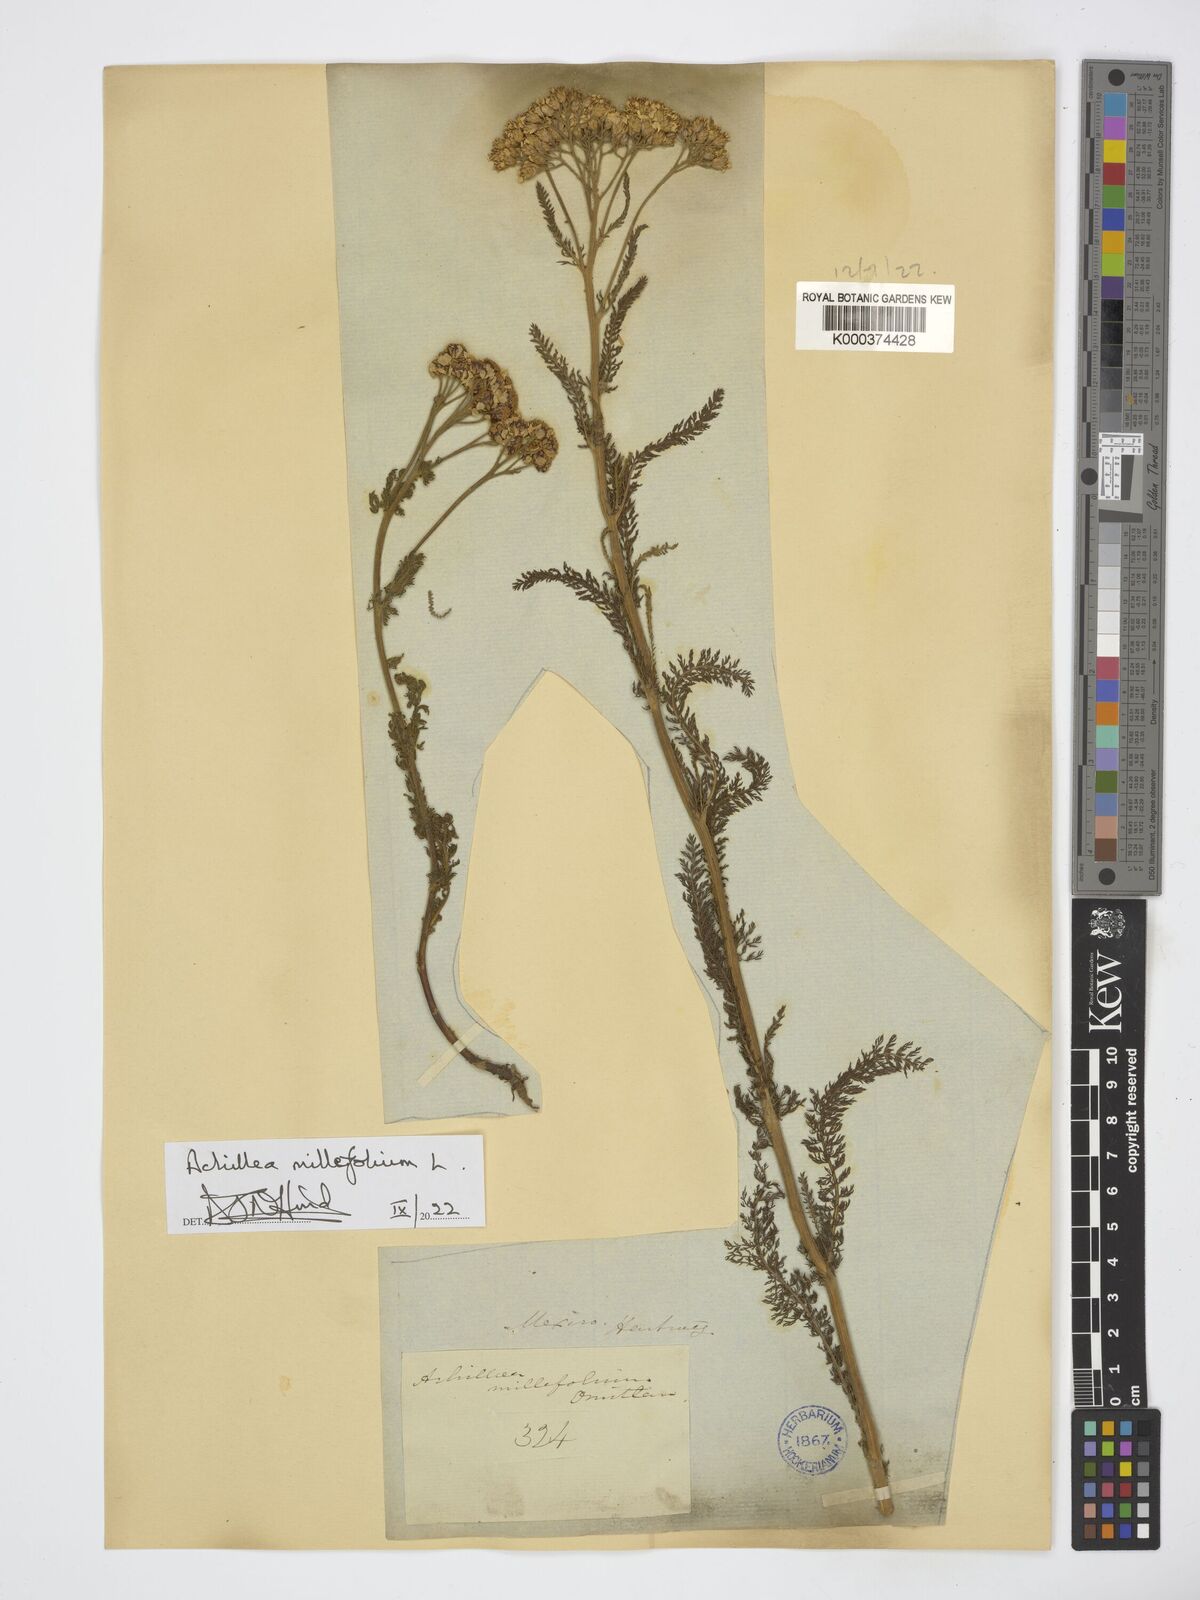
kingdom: Plantae
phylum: Tracheophyta
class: Magnoliopsida
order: Asterales
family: Asteraceae
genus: Achillea
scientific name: Achillea millefolium
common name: Yarrow
